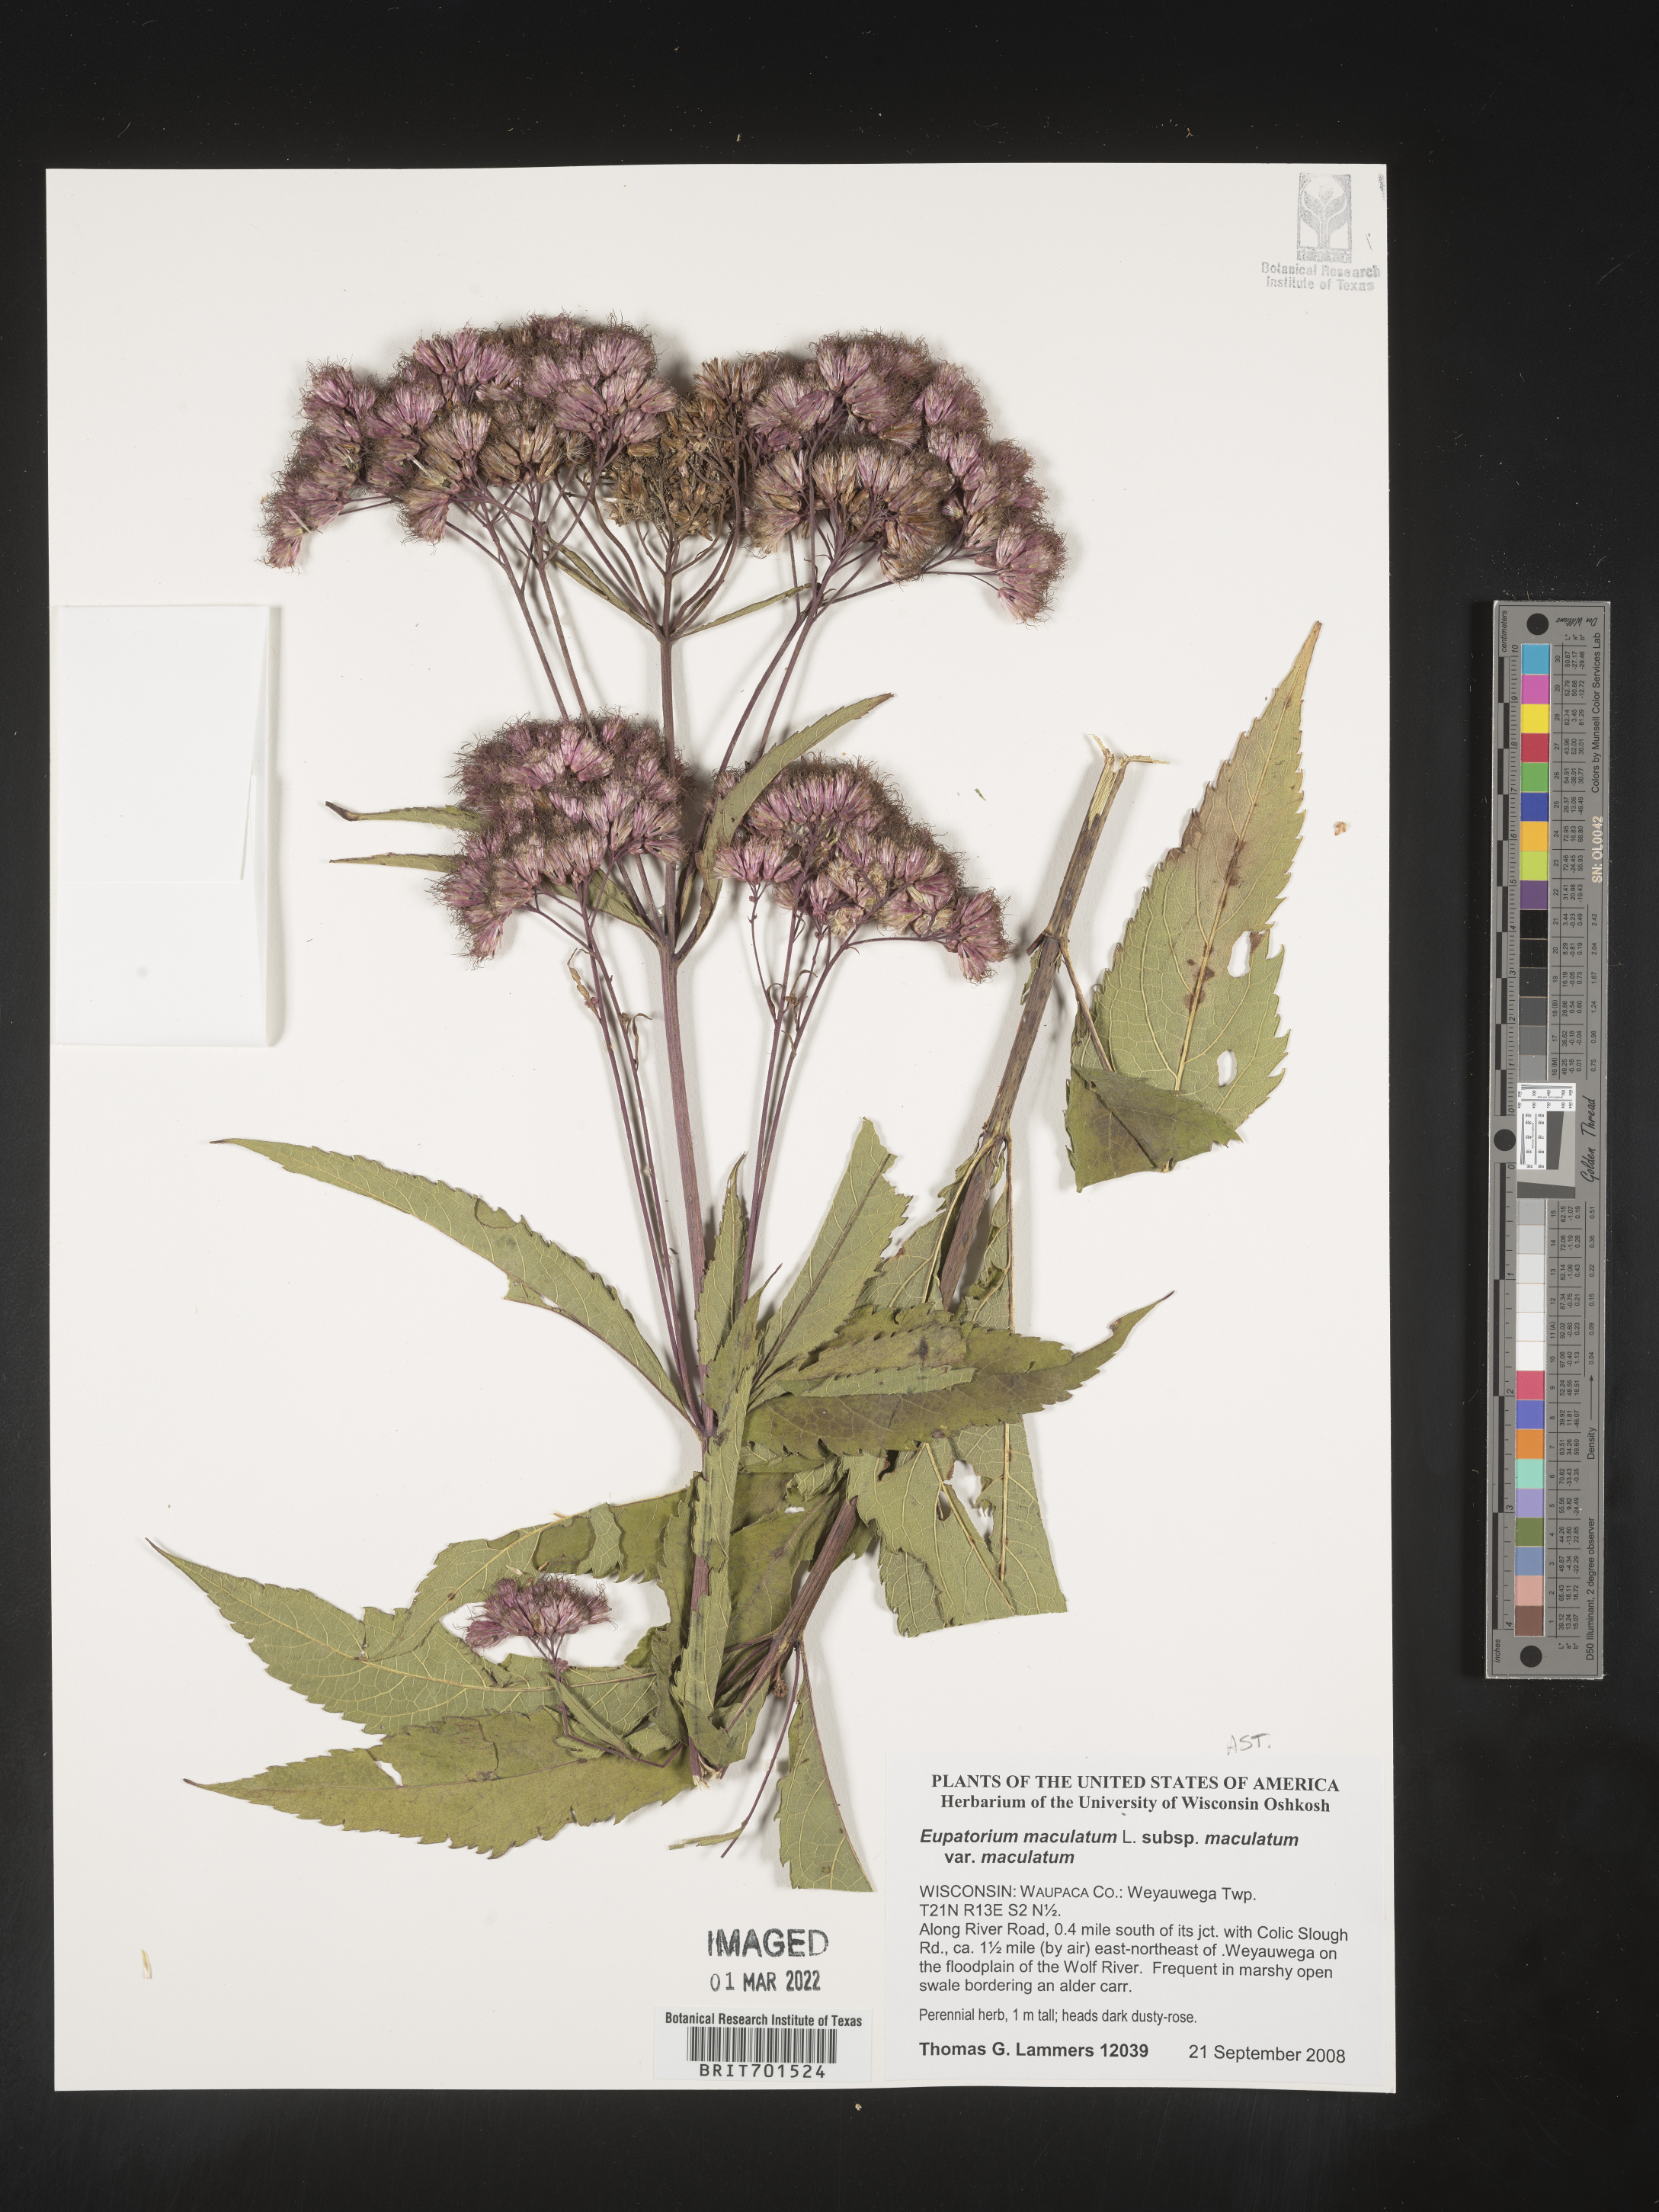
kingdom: Plantae
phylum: Tracheophyta
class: Magnoliopsida
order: Asterales
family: Asteraceae
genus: Eutrochium
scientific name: Eutrochium maculatum
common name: Spotted joe pye weed
